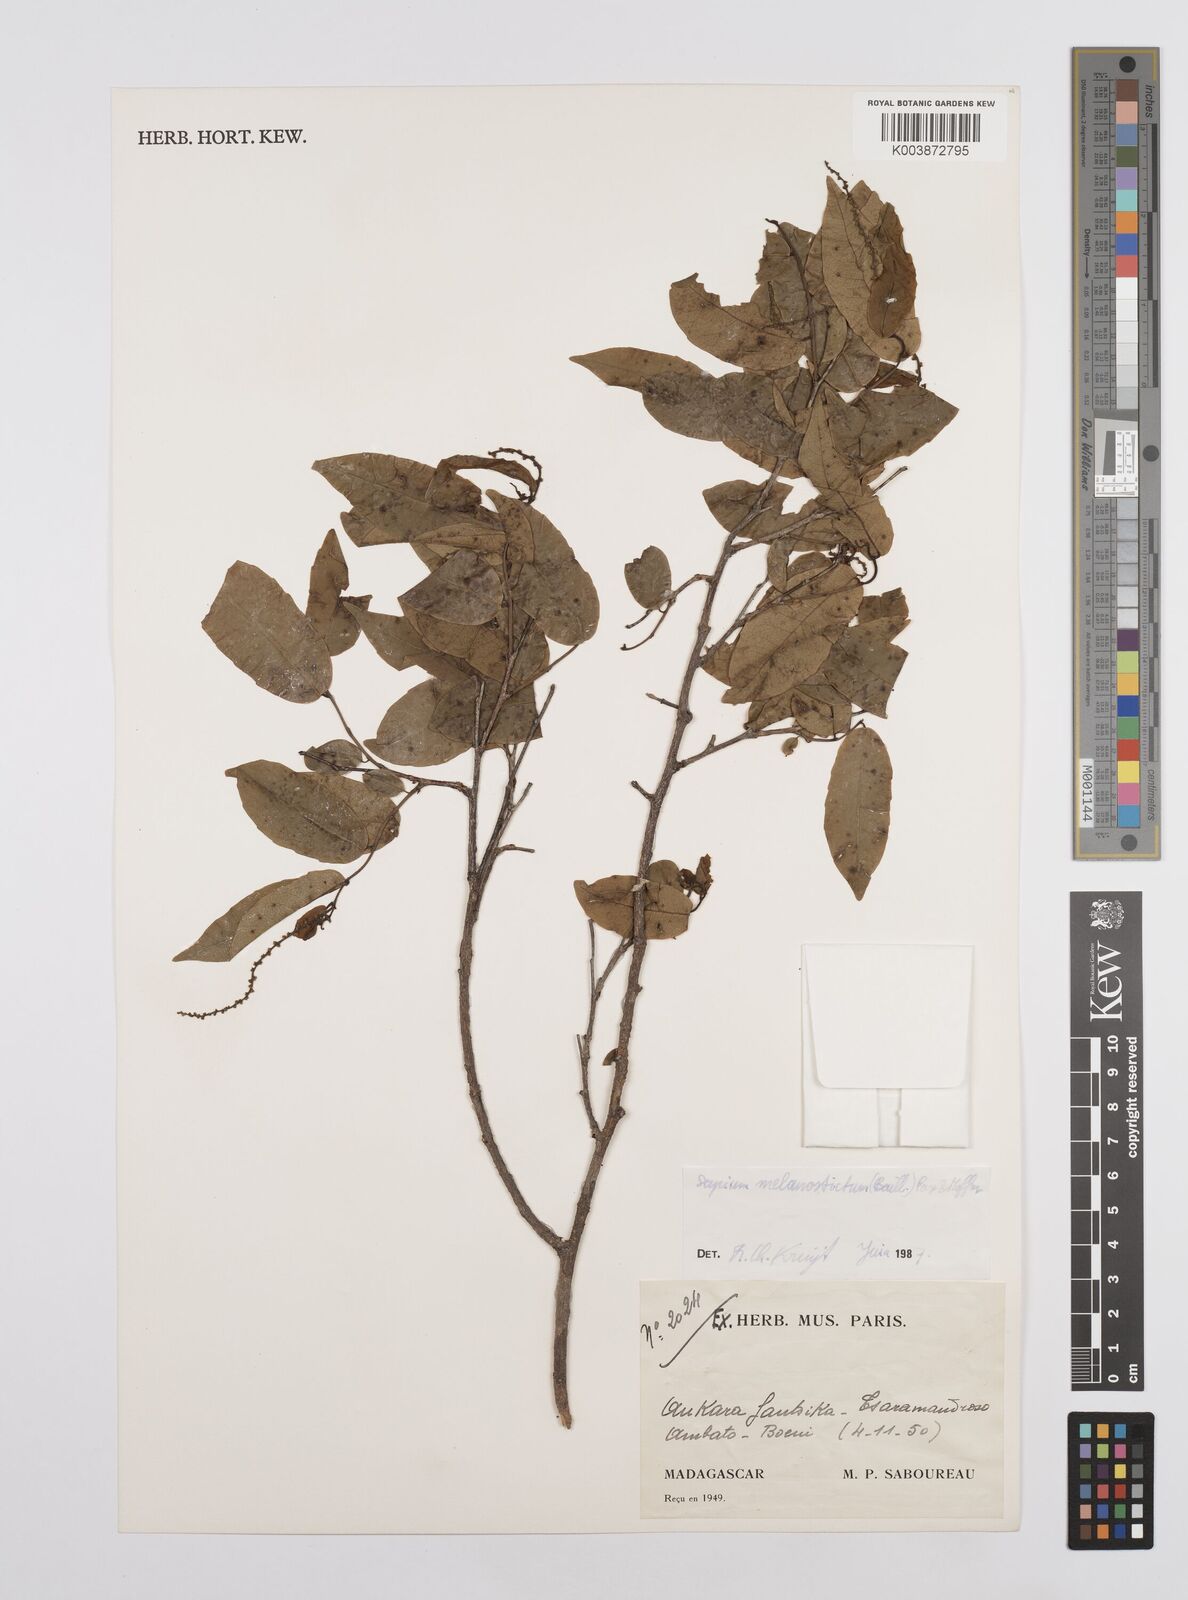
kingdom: Plantae
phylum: Tracheophyta
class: Magnoliopsida
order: Malpighiales
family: Euphorbiaceae
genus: Sclerocroton
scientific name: Sclerocroton melanostictus
